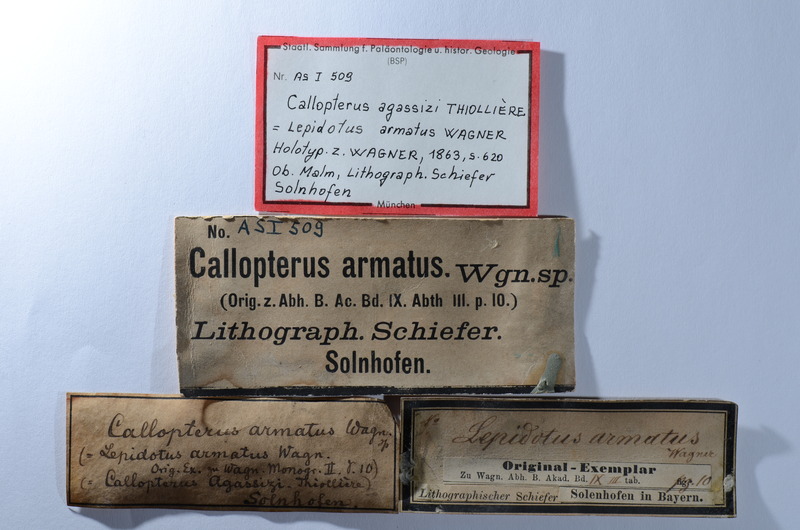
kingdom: Animalia
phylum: Chordata
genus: Callopterus
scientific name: Callopterus armata
